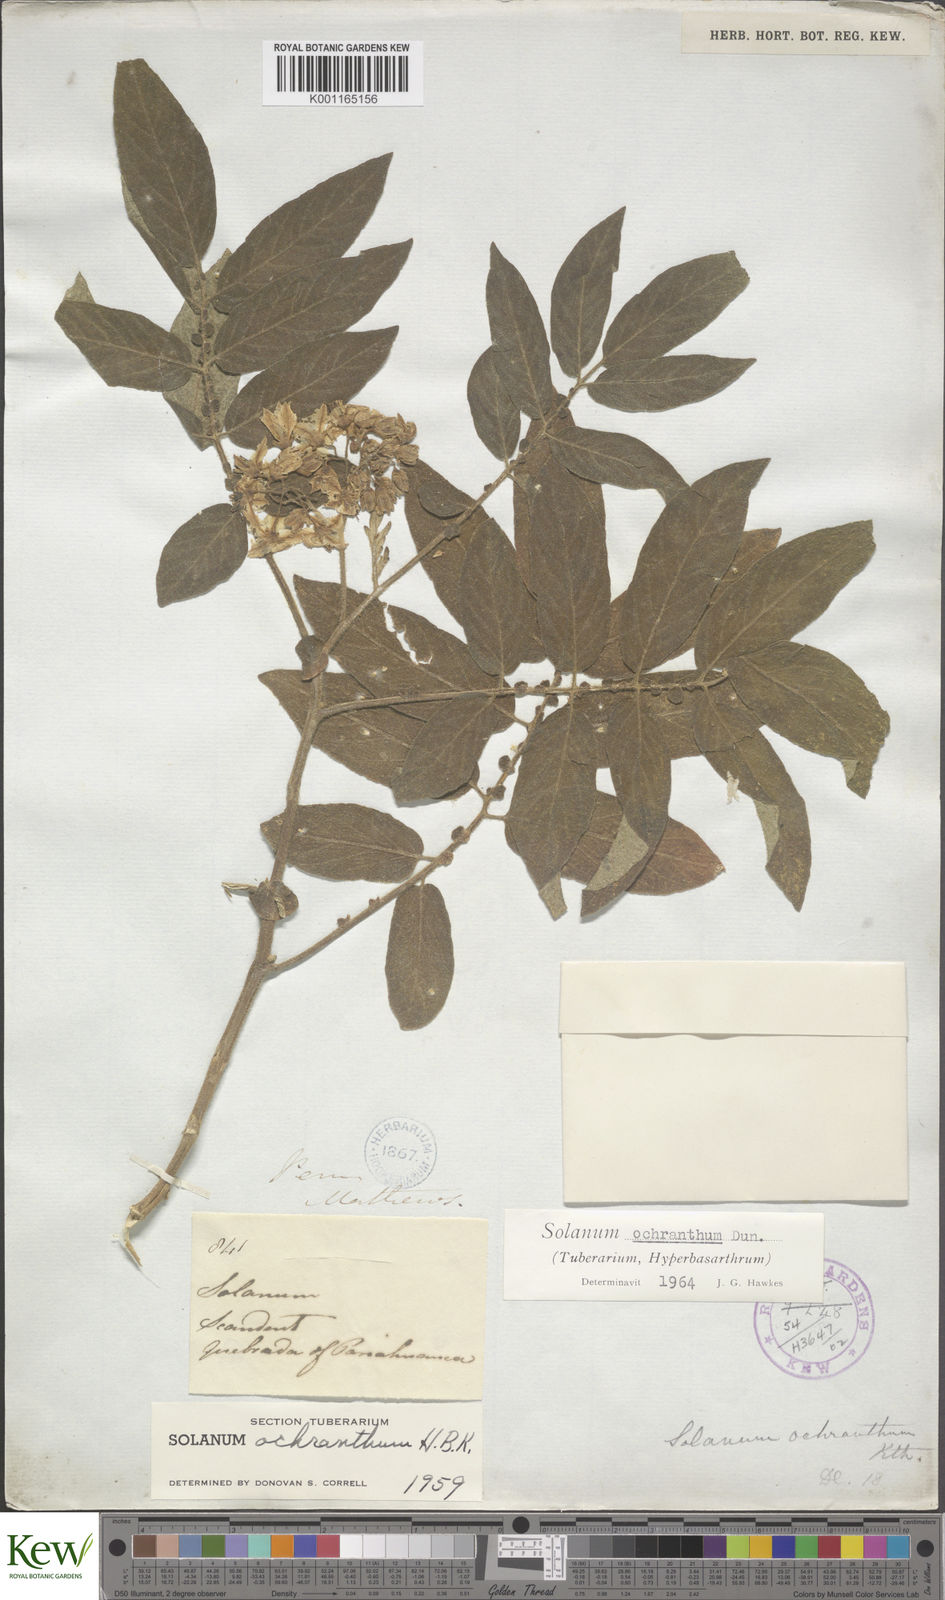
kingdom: Plantae
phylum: Tracheophyta
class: Magnoliopsida
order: Solanales
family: Solanaceae
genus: Solanum
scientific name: Solanum ochranthum
